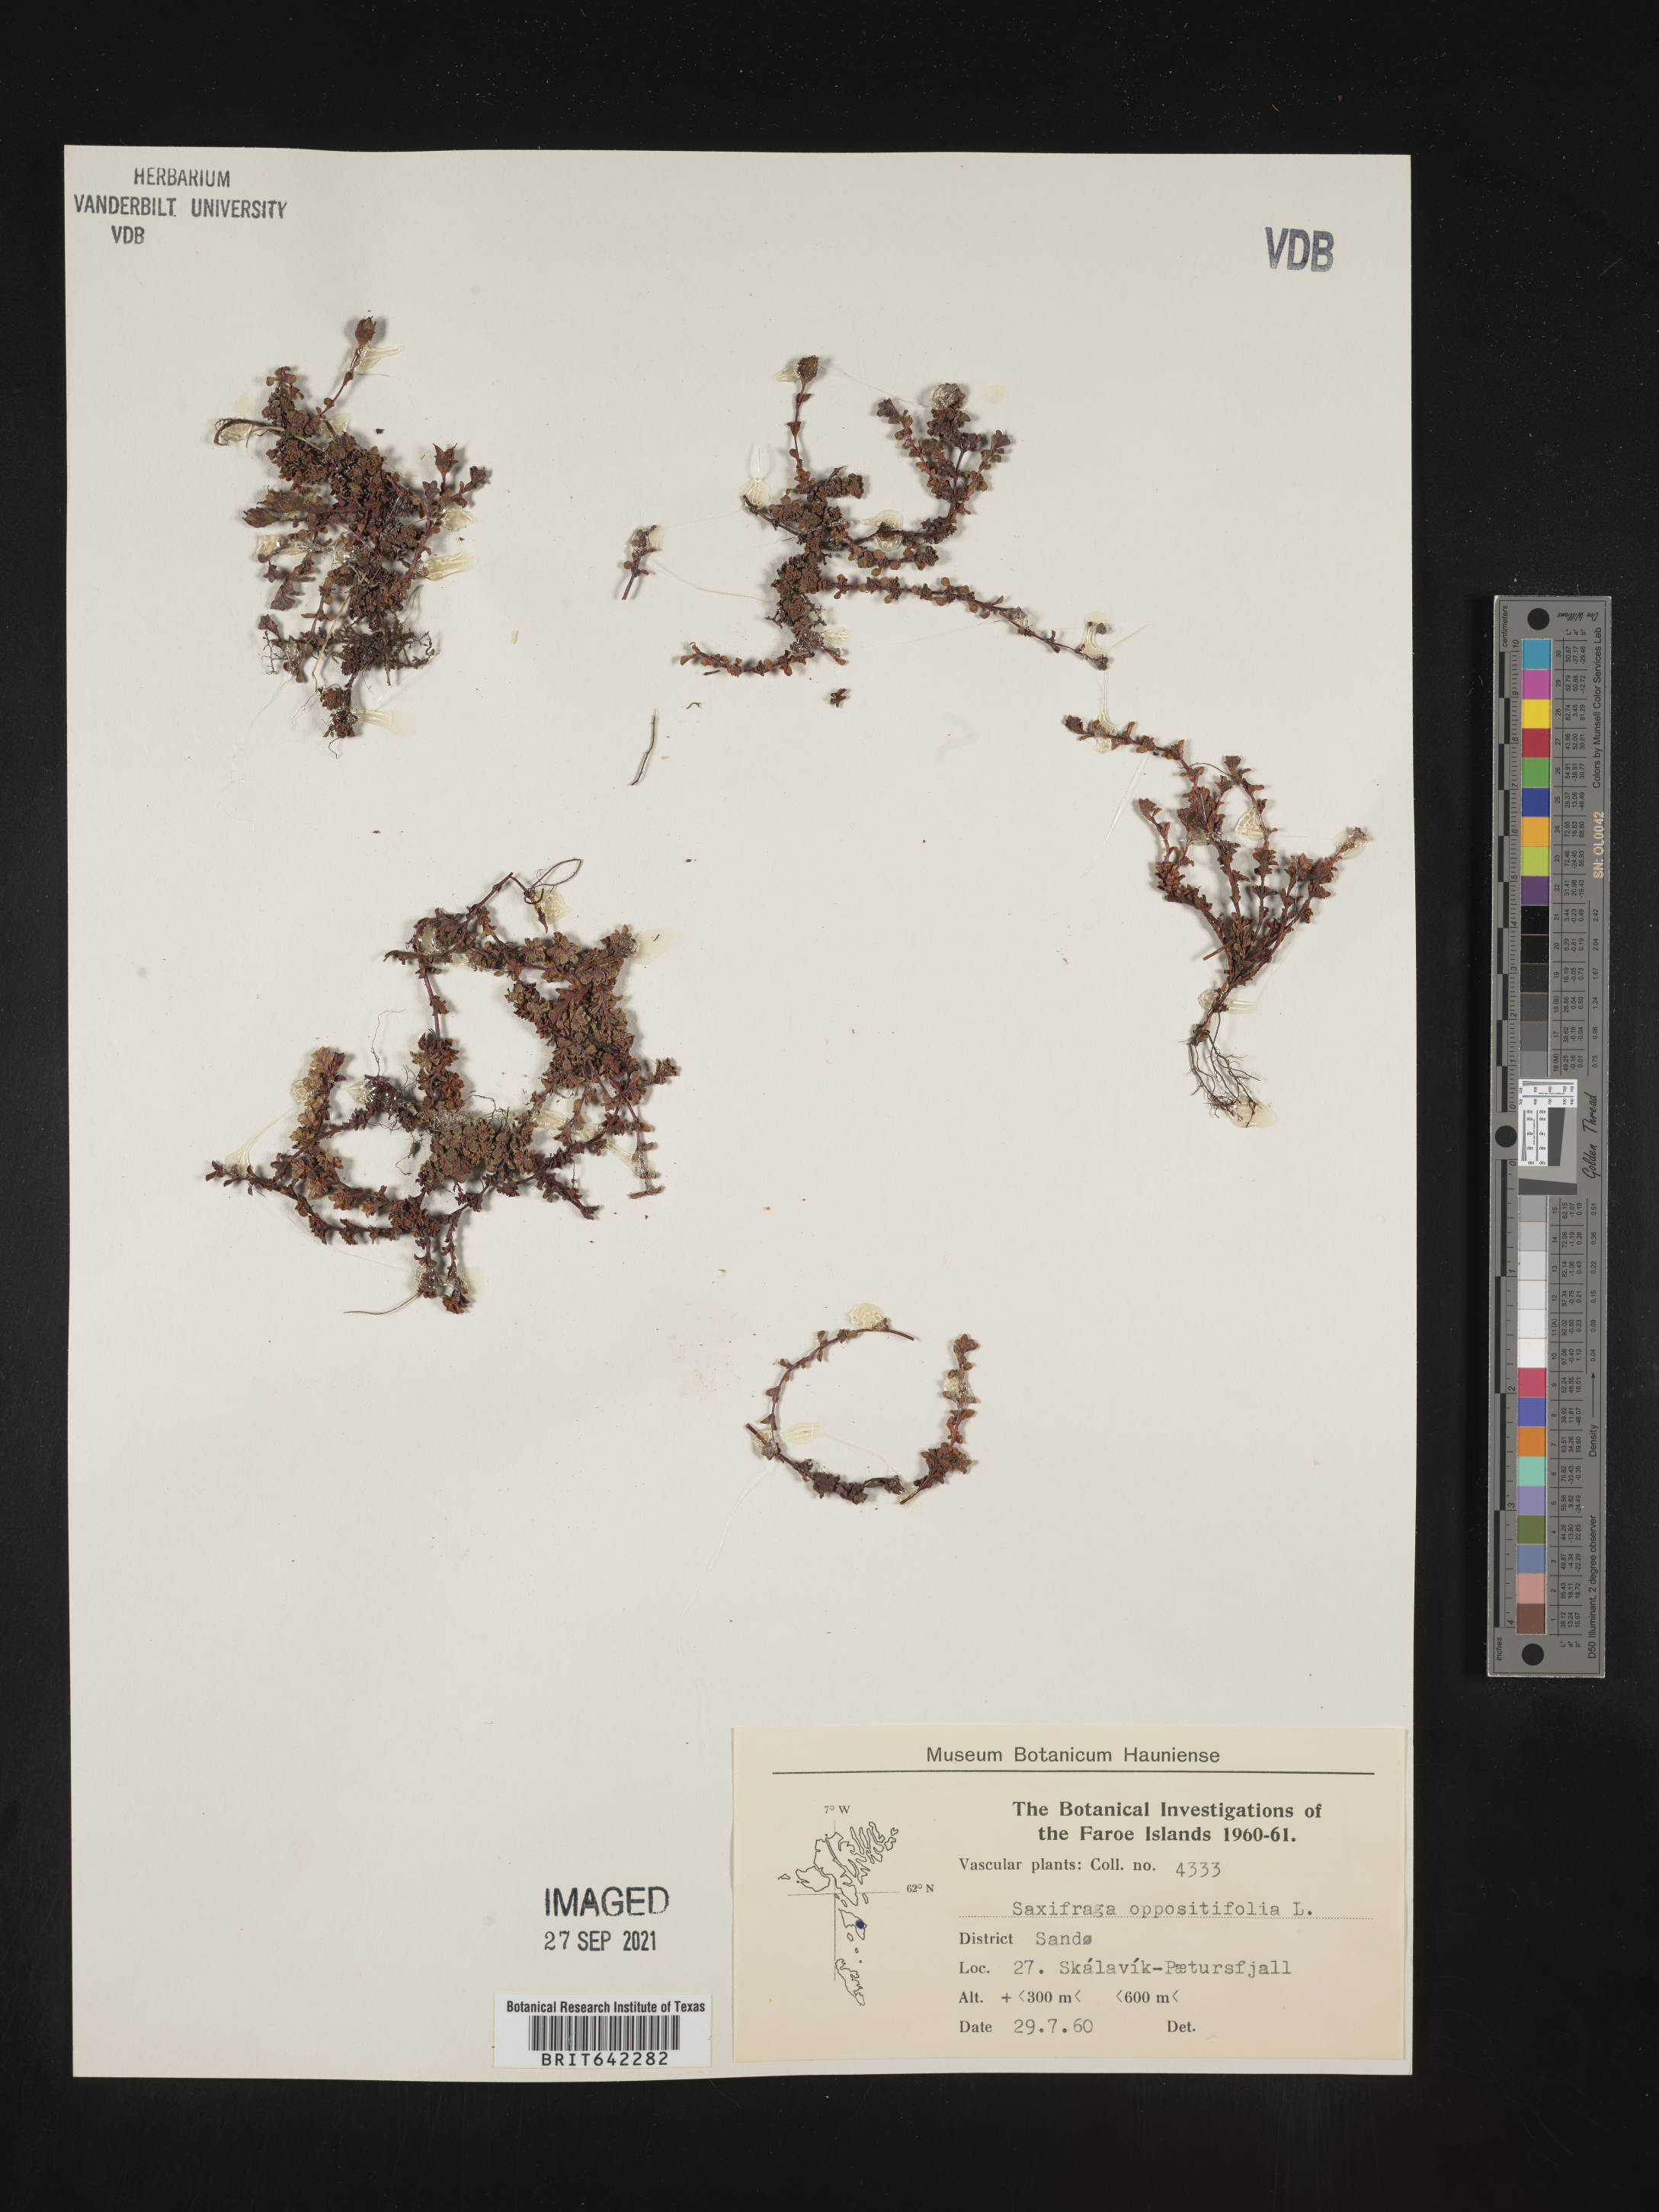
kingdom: Plantae
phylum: Tracheophyta
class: Magnoliopsida
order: Saxifragales
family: Saxifragaceae
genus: Saxifraga
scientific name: Saxifraga
